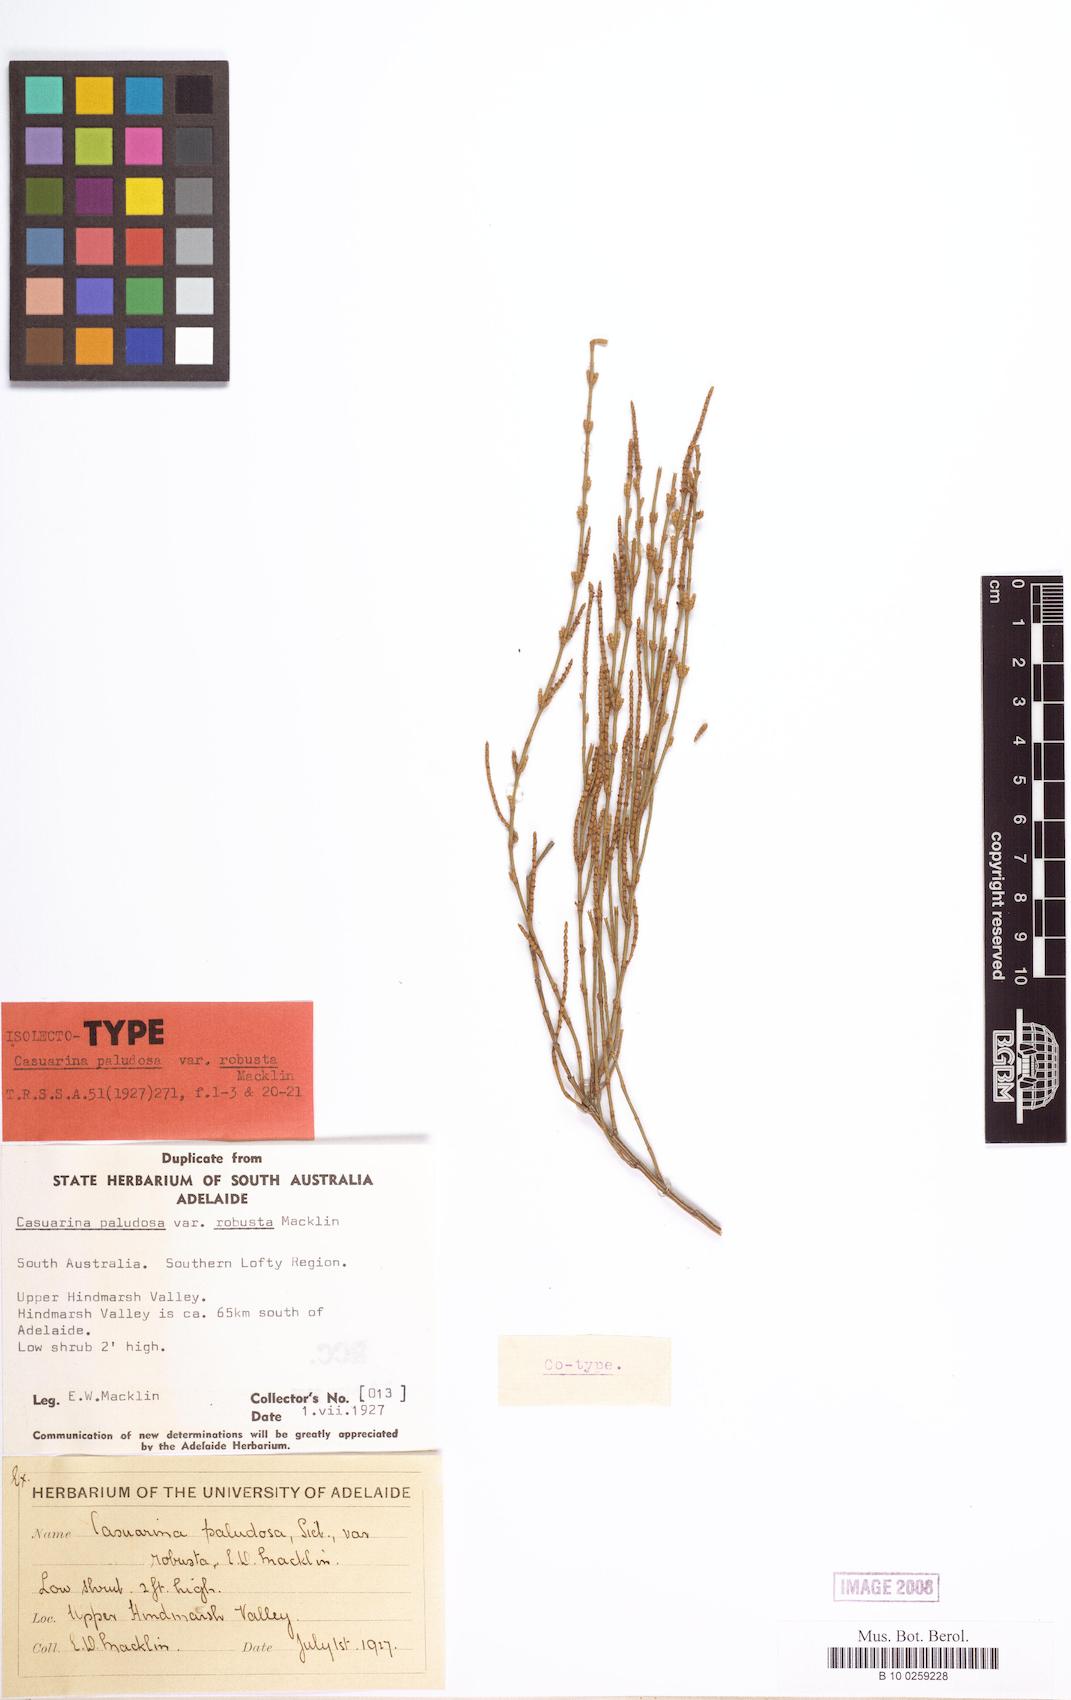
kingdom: Plantae
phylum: Tracheophyta
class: Magnoliopsida
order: Fagales
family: Casuarinaceae
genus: Allocasuarina
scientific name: Allocasuarina robusta
